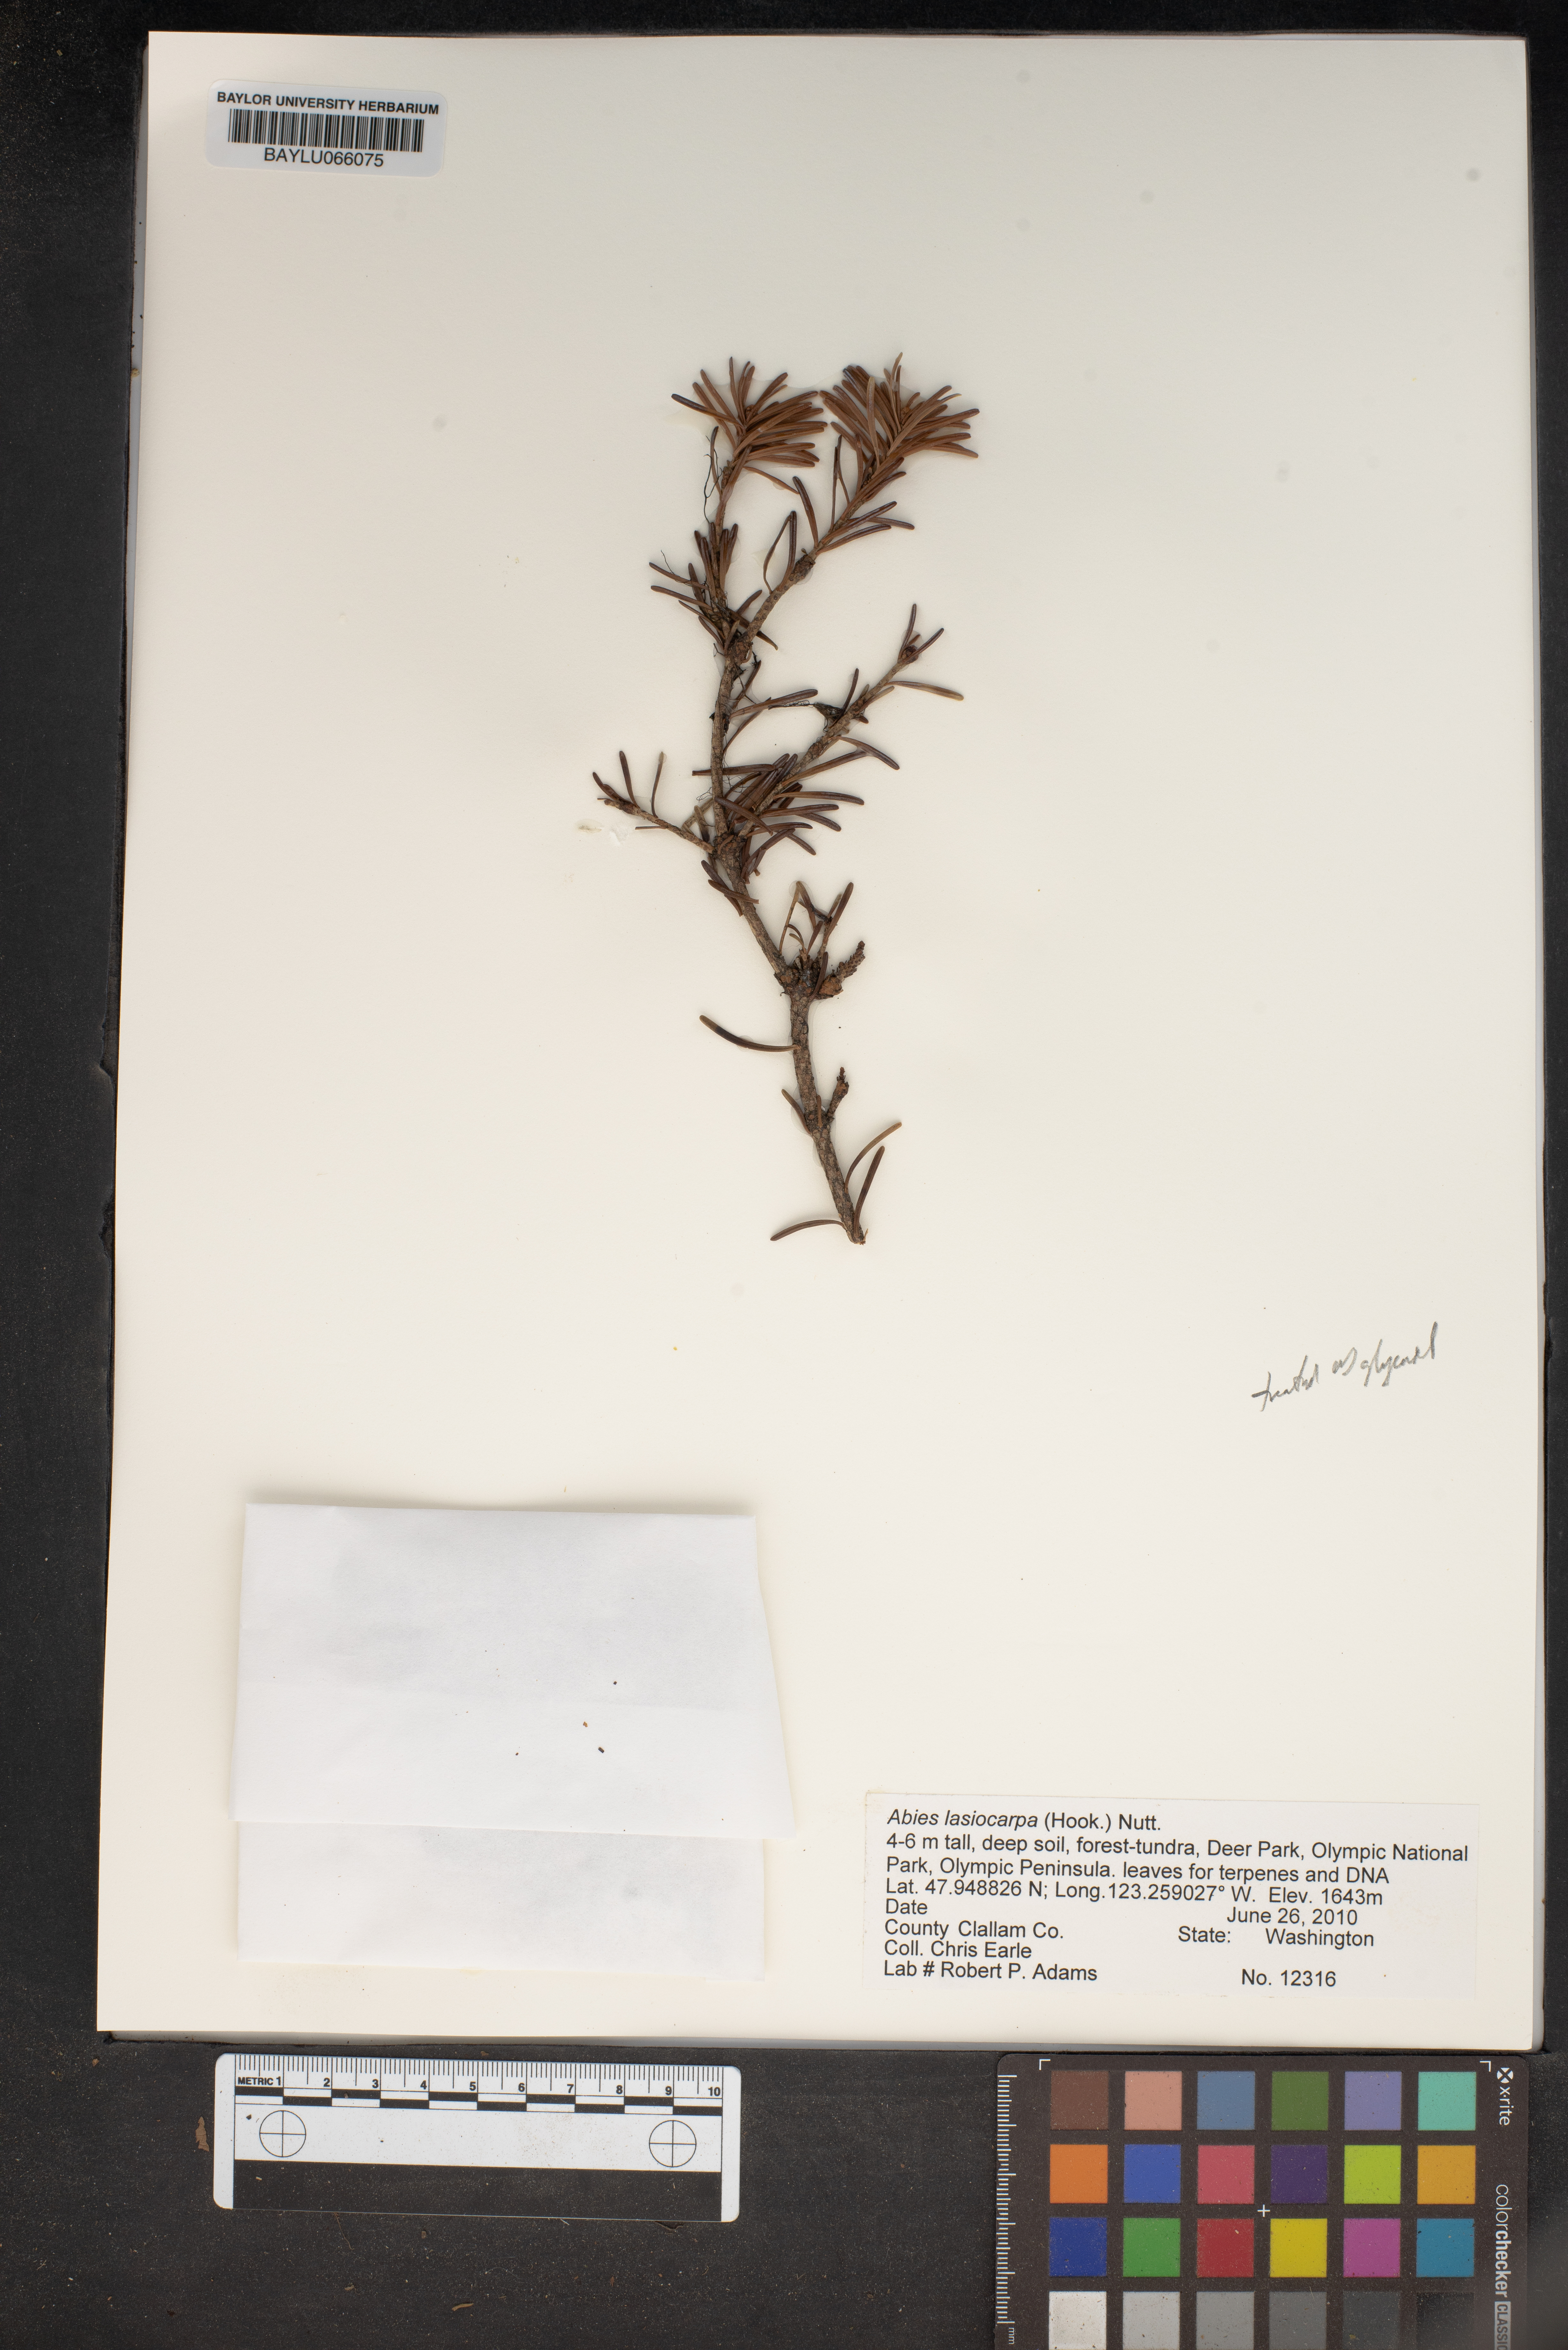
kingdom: Plantae
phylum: Tracheophyta
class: Pinopsida
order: Pinales
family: Pinaceae
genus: Abies
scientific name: Abies lasiocarpa
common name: Subalpine fir
